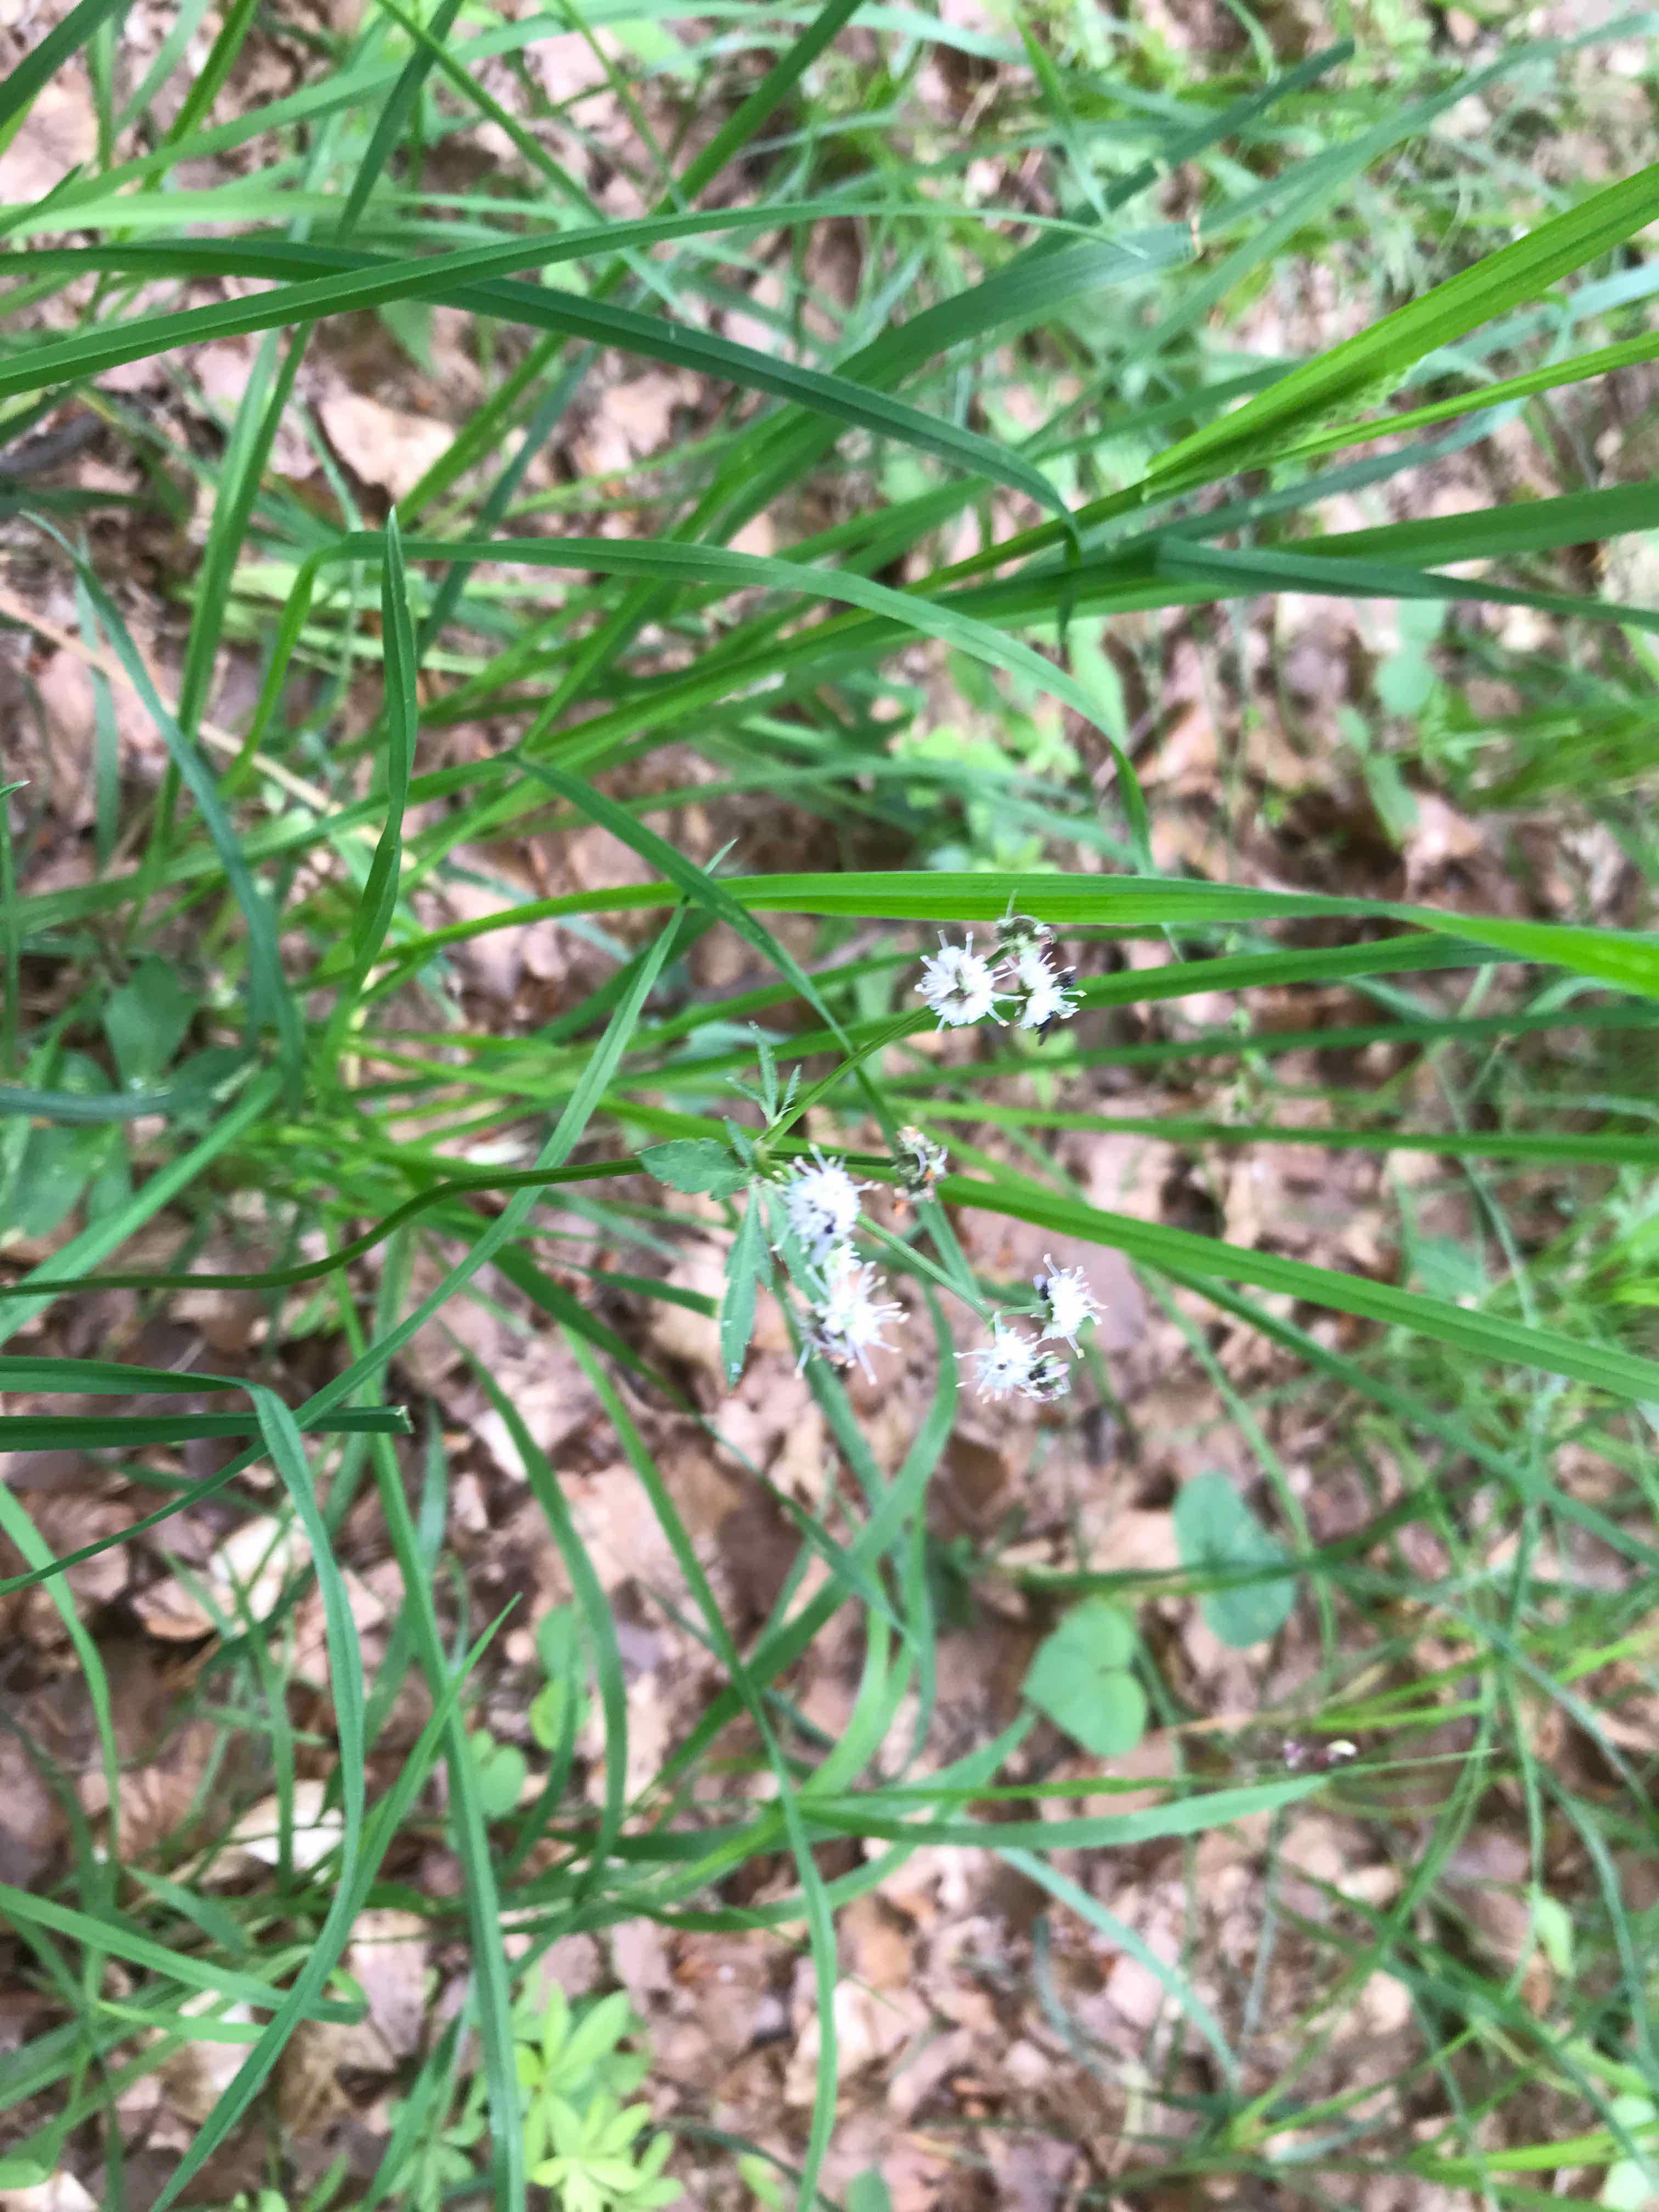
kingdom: Fungi
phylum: Basidiomycota
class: Microbotryomycetes
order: Microbotryales
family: Microbotryaceae
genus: Microbotryum
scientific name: Microbotryum stellariae
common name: fladstjerne-støvbladrust
